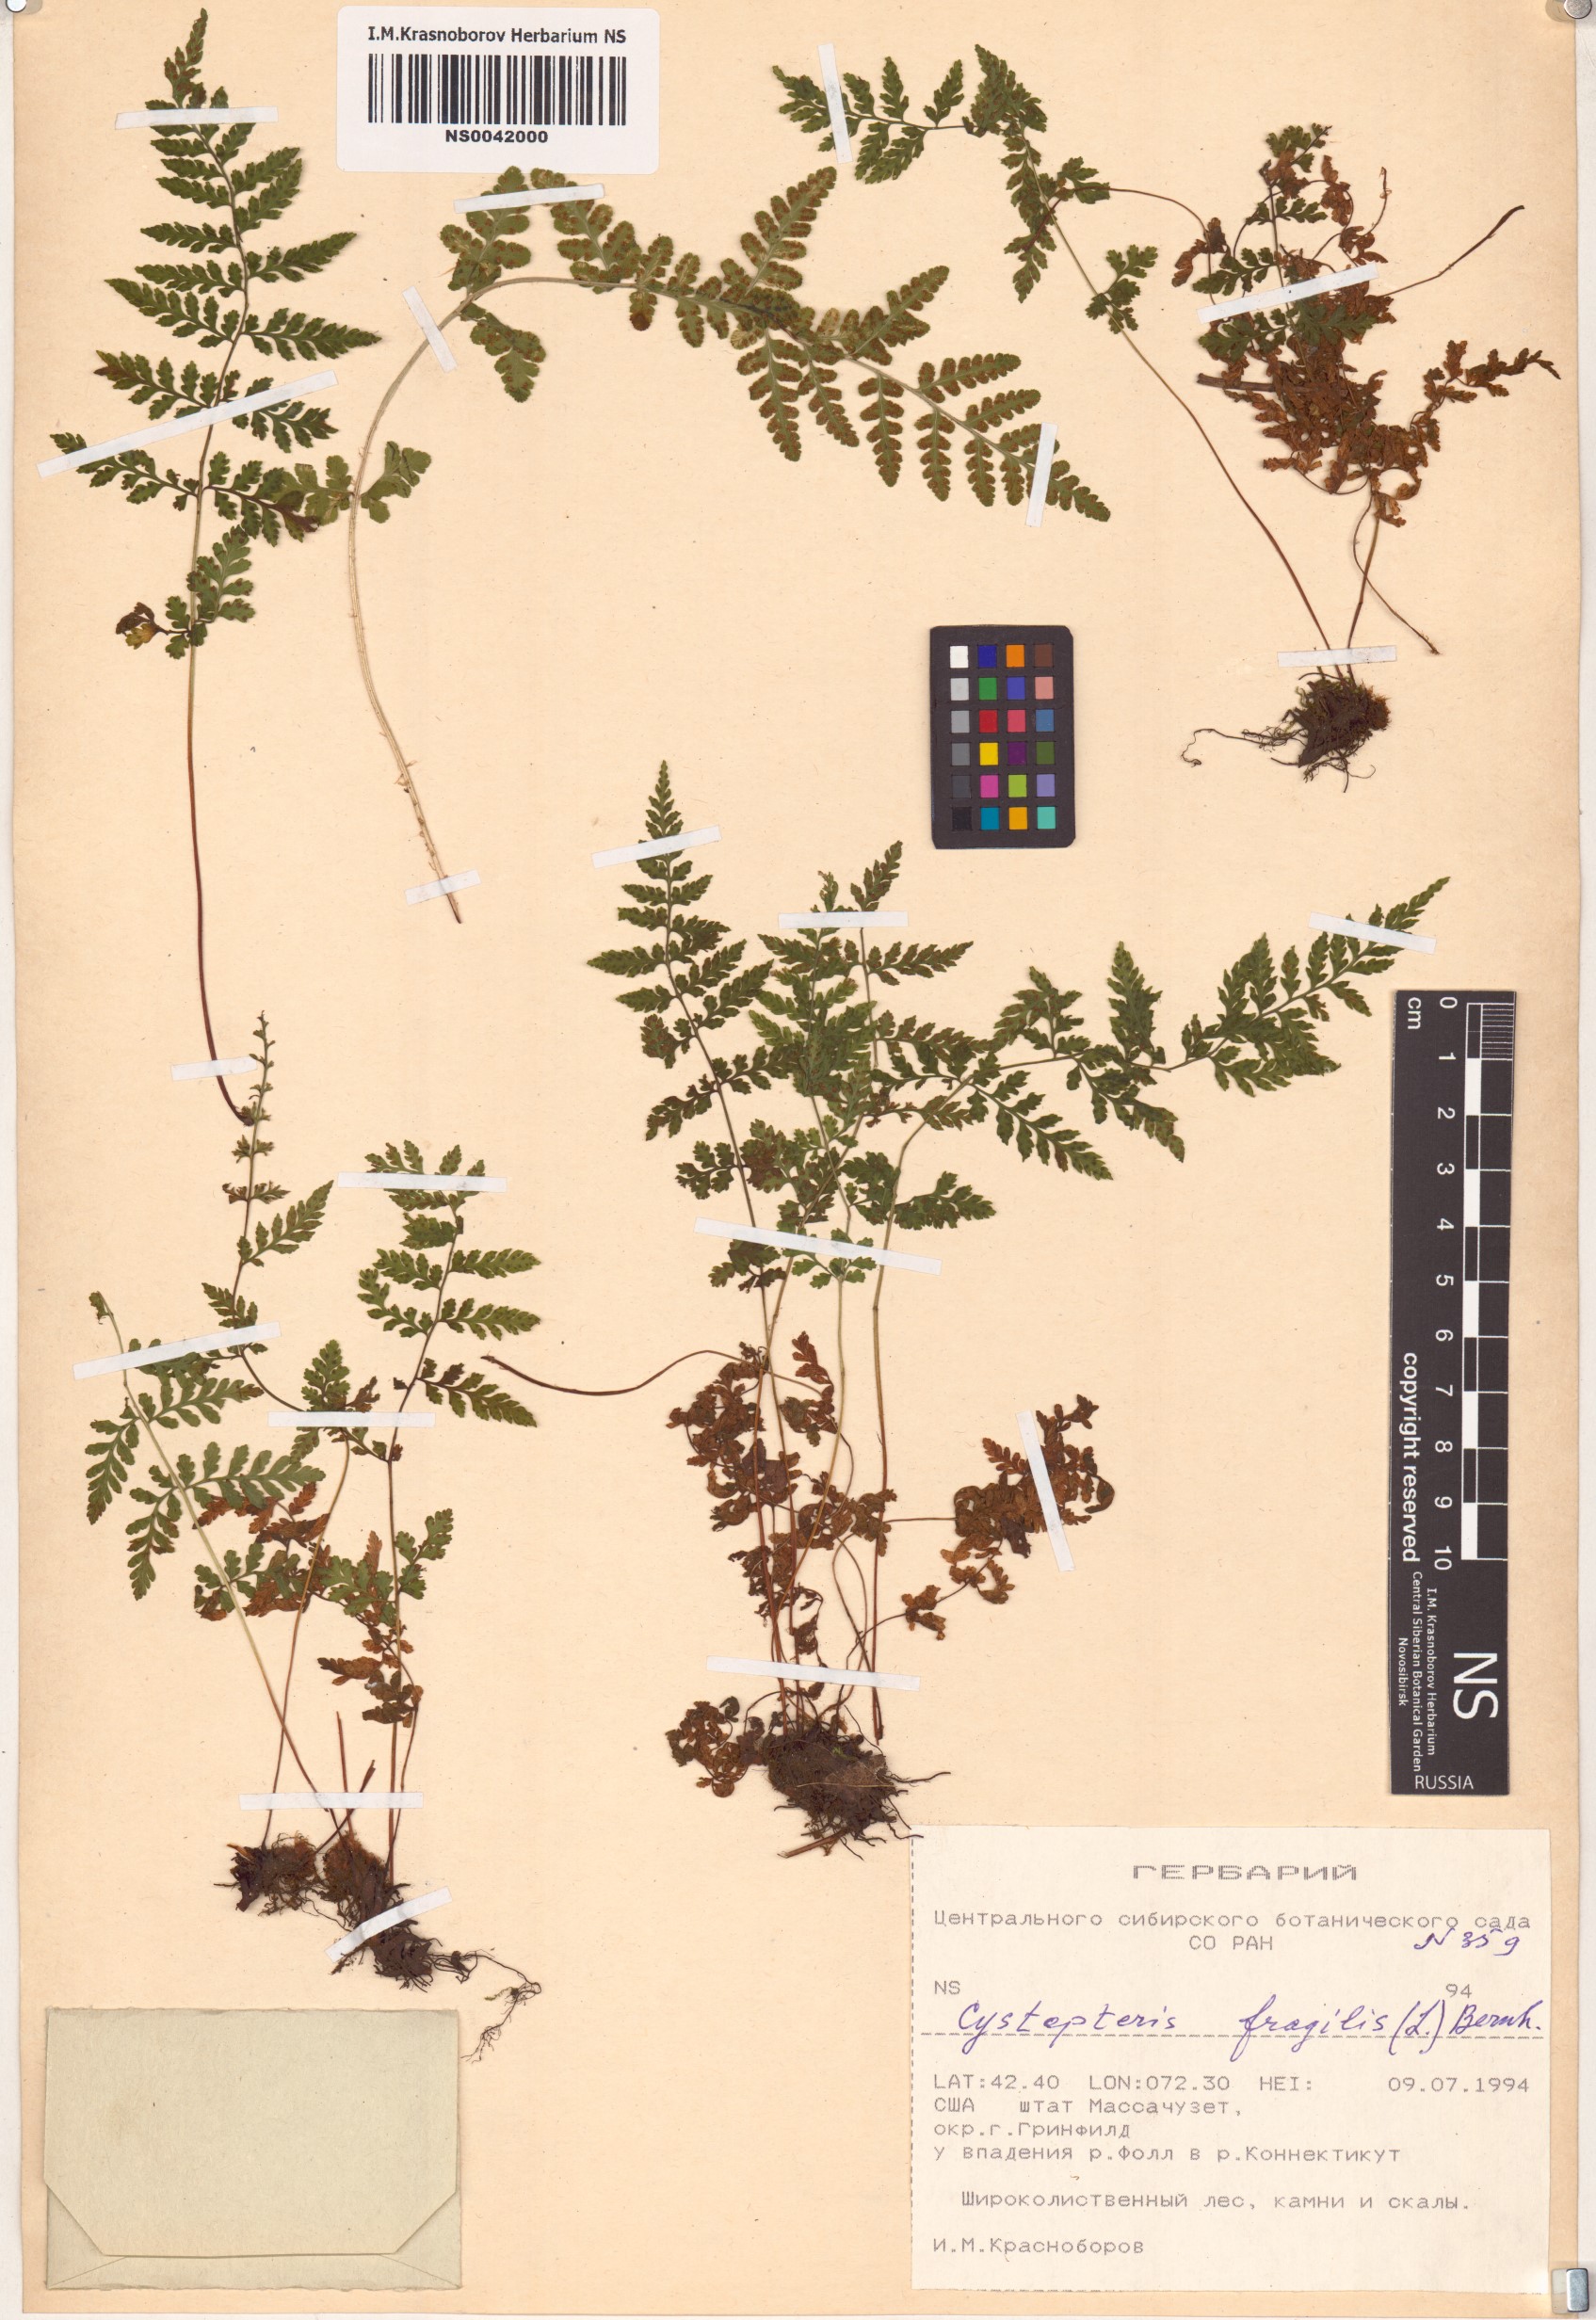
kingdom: Plantae
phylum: Tracheophyta
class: Polypodiopsida
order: Polypodiales
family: Cystopteridaceae
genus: Cystopteris
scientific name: Cystopteris fragilis
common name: Brittle bladder fern
